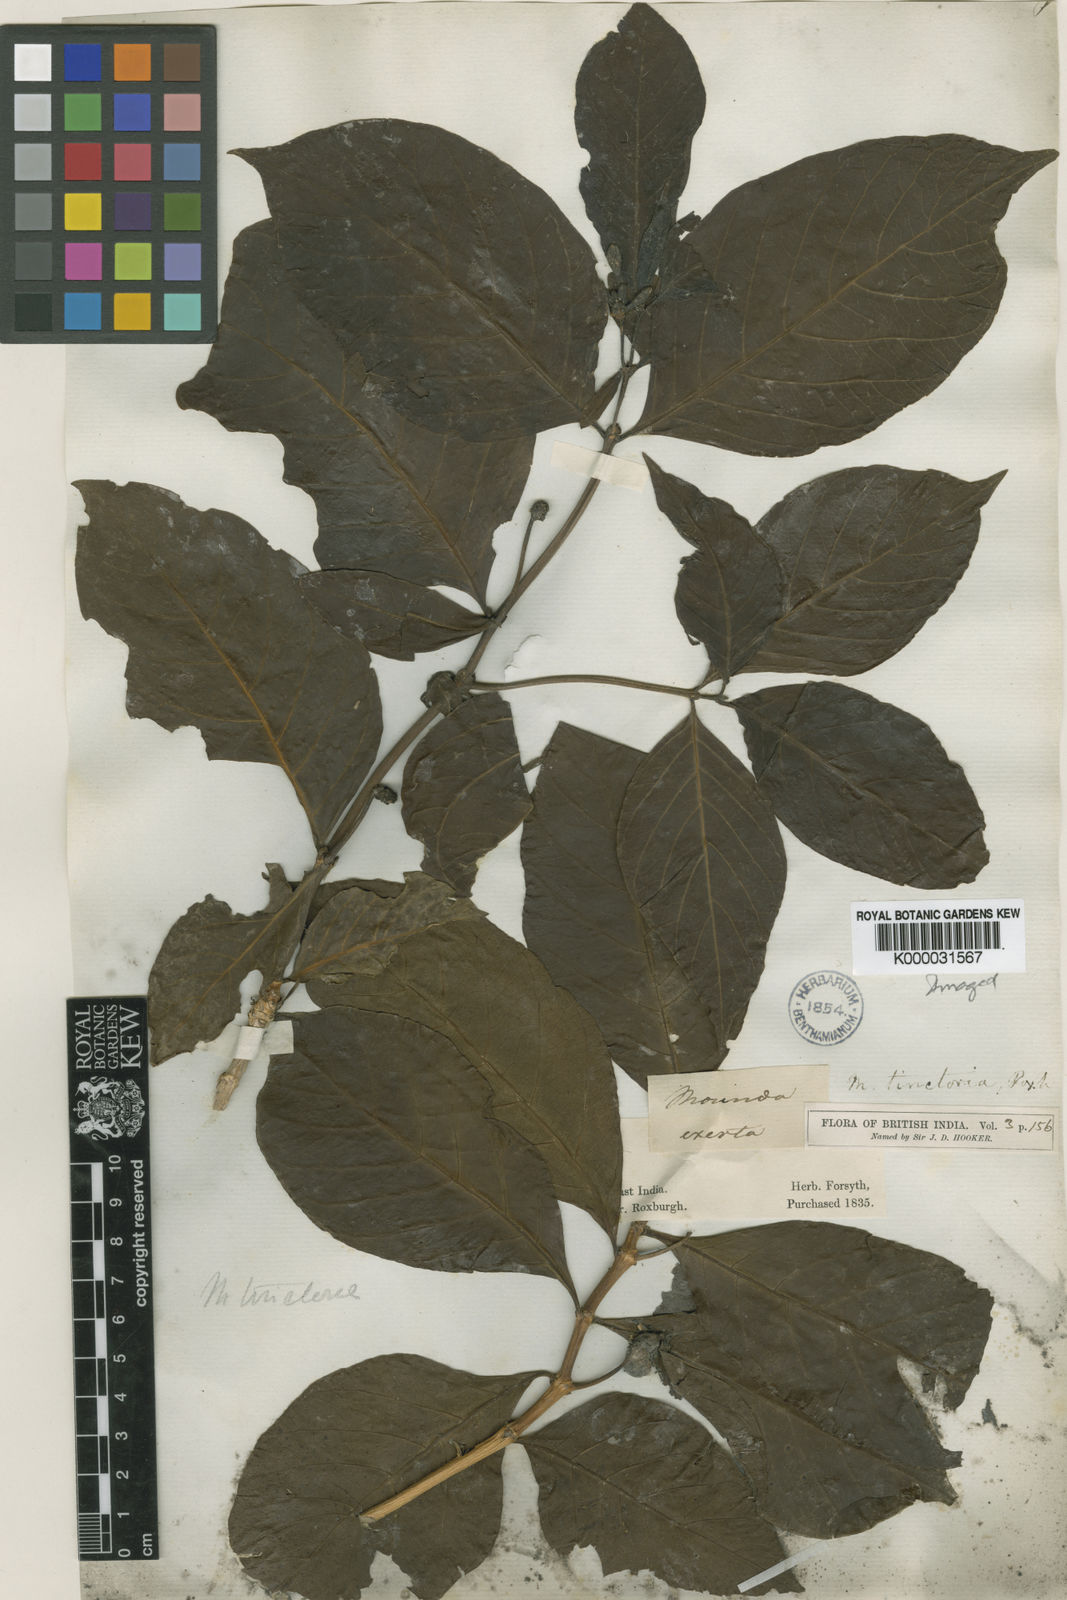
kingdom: Plantae
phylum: Tracheophyta
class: Magnoliopsida
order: Gentianales
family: Rubiaceae
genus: Morinda
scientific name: Morinda coreia
